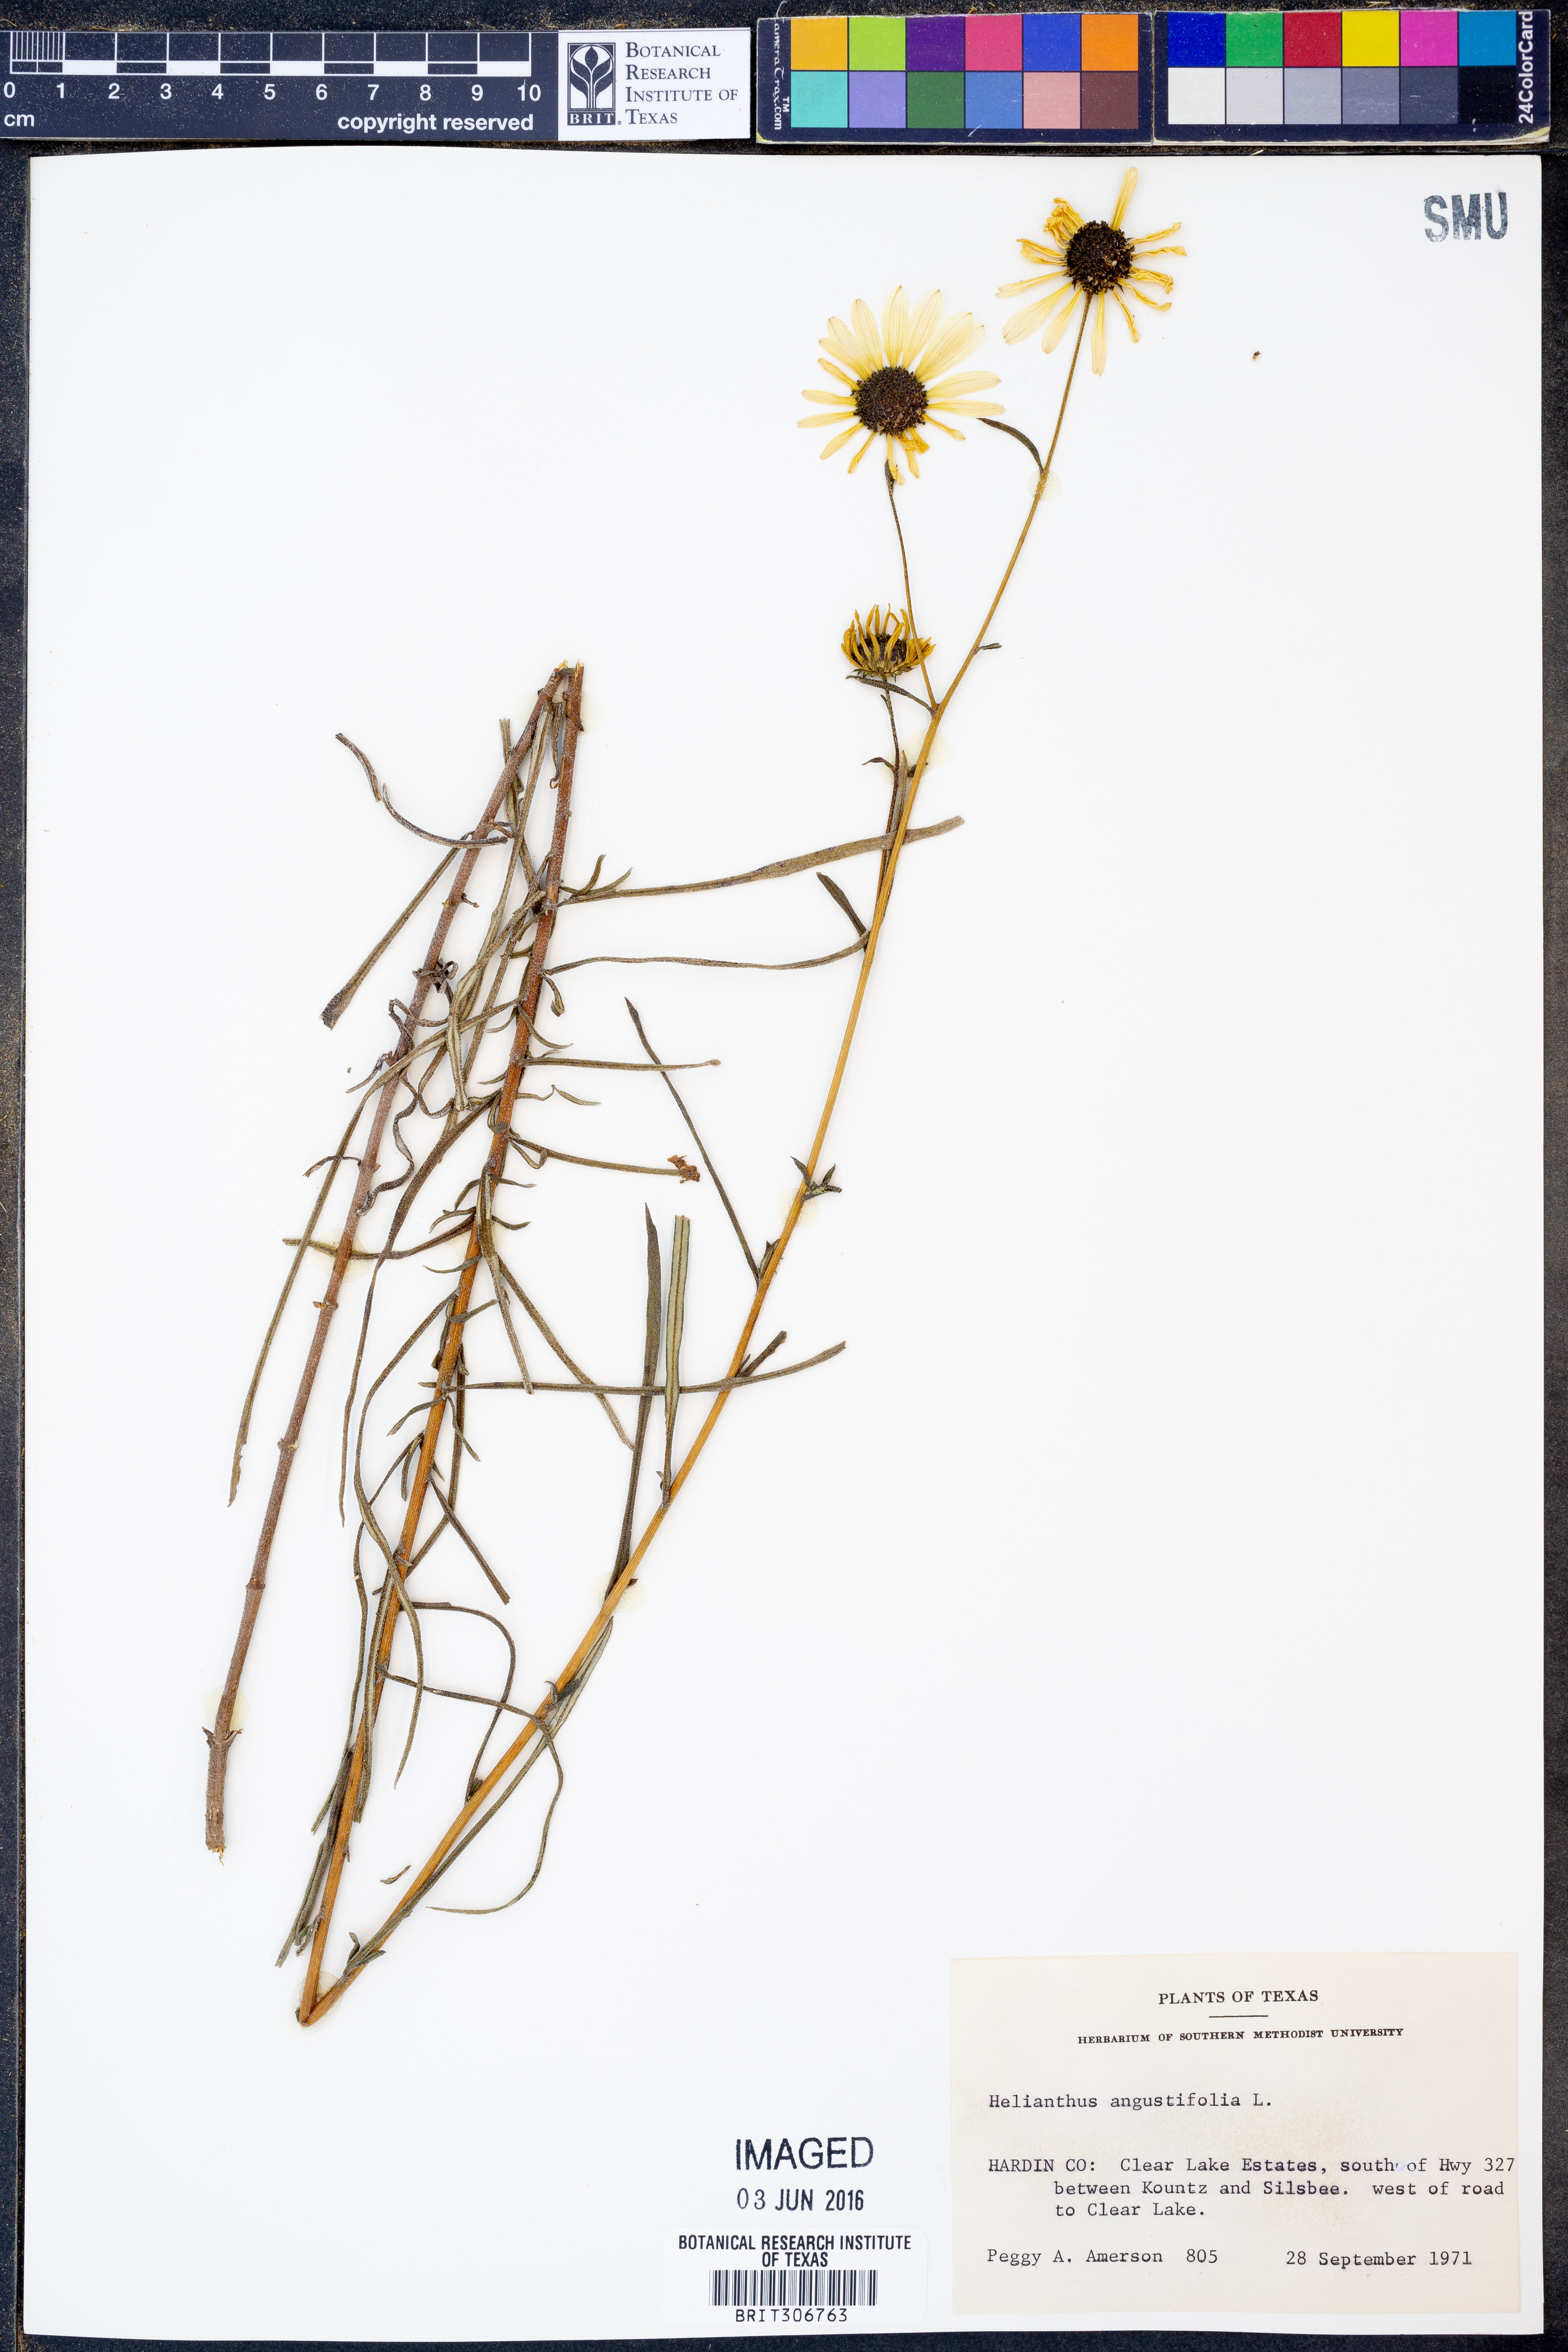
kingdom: Plantae
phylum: Tracheophyta
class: Magnoliopsida
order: Asterales
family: Asteraceae
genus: Helianthus
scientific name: Helianthus angustifolius
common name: Swamp sunflower
